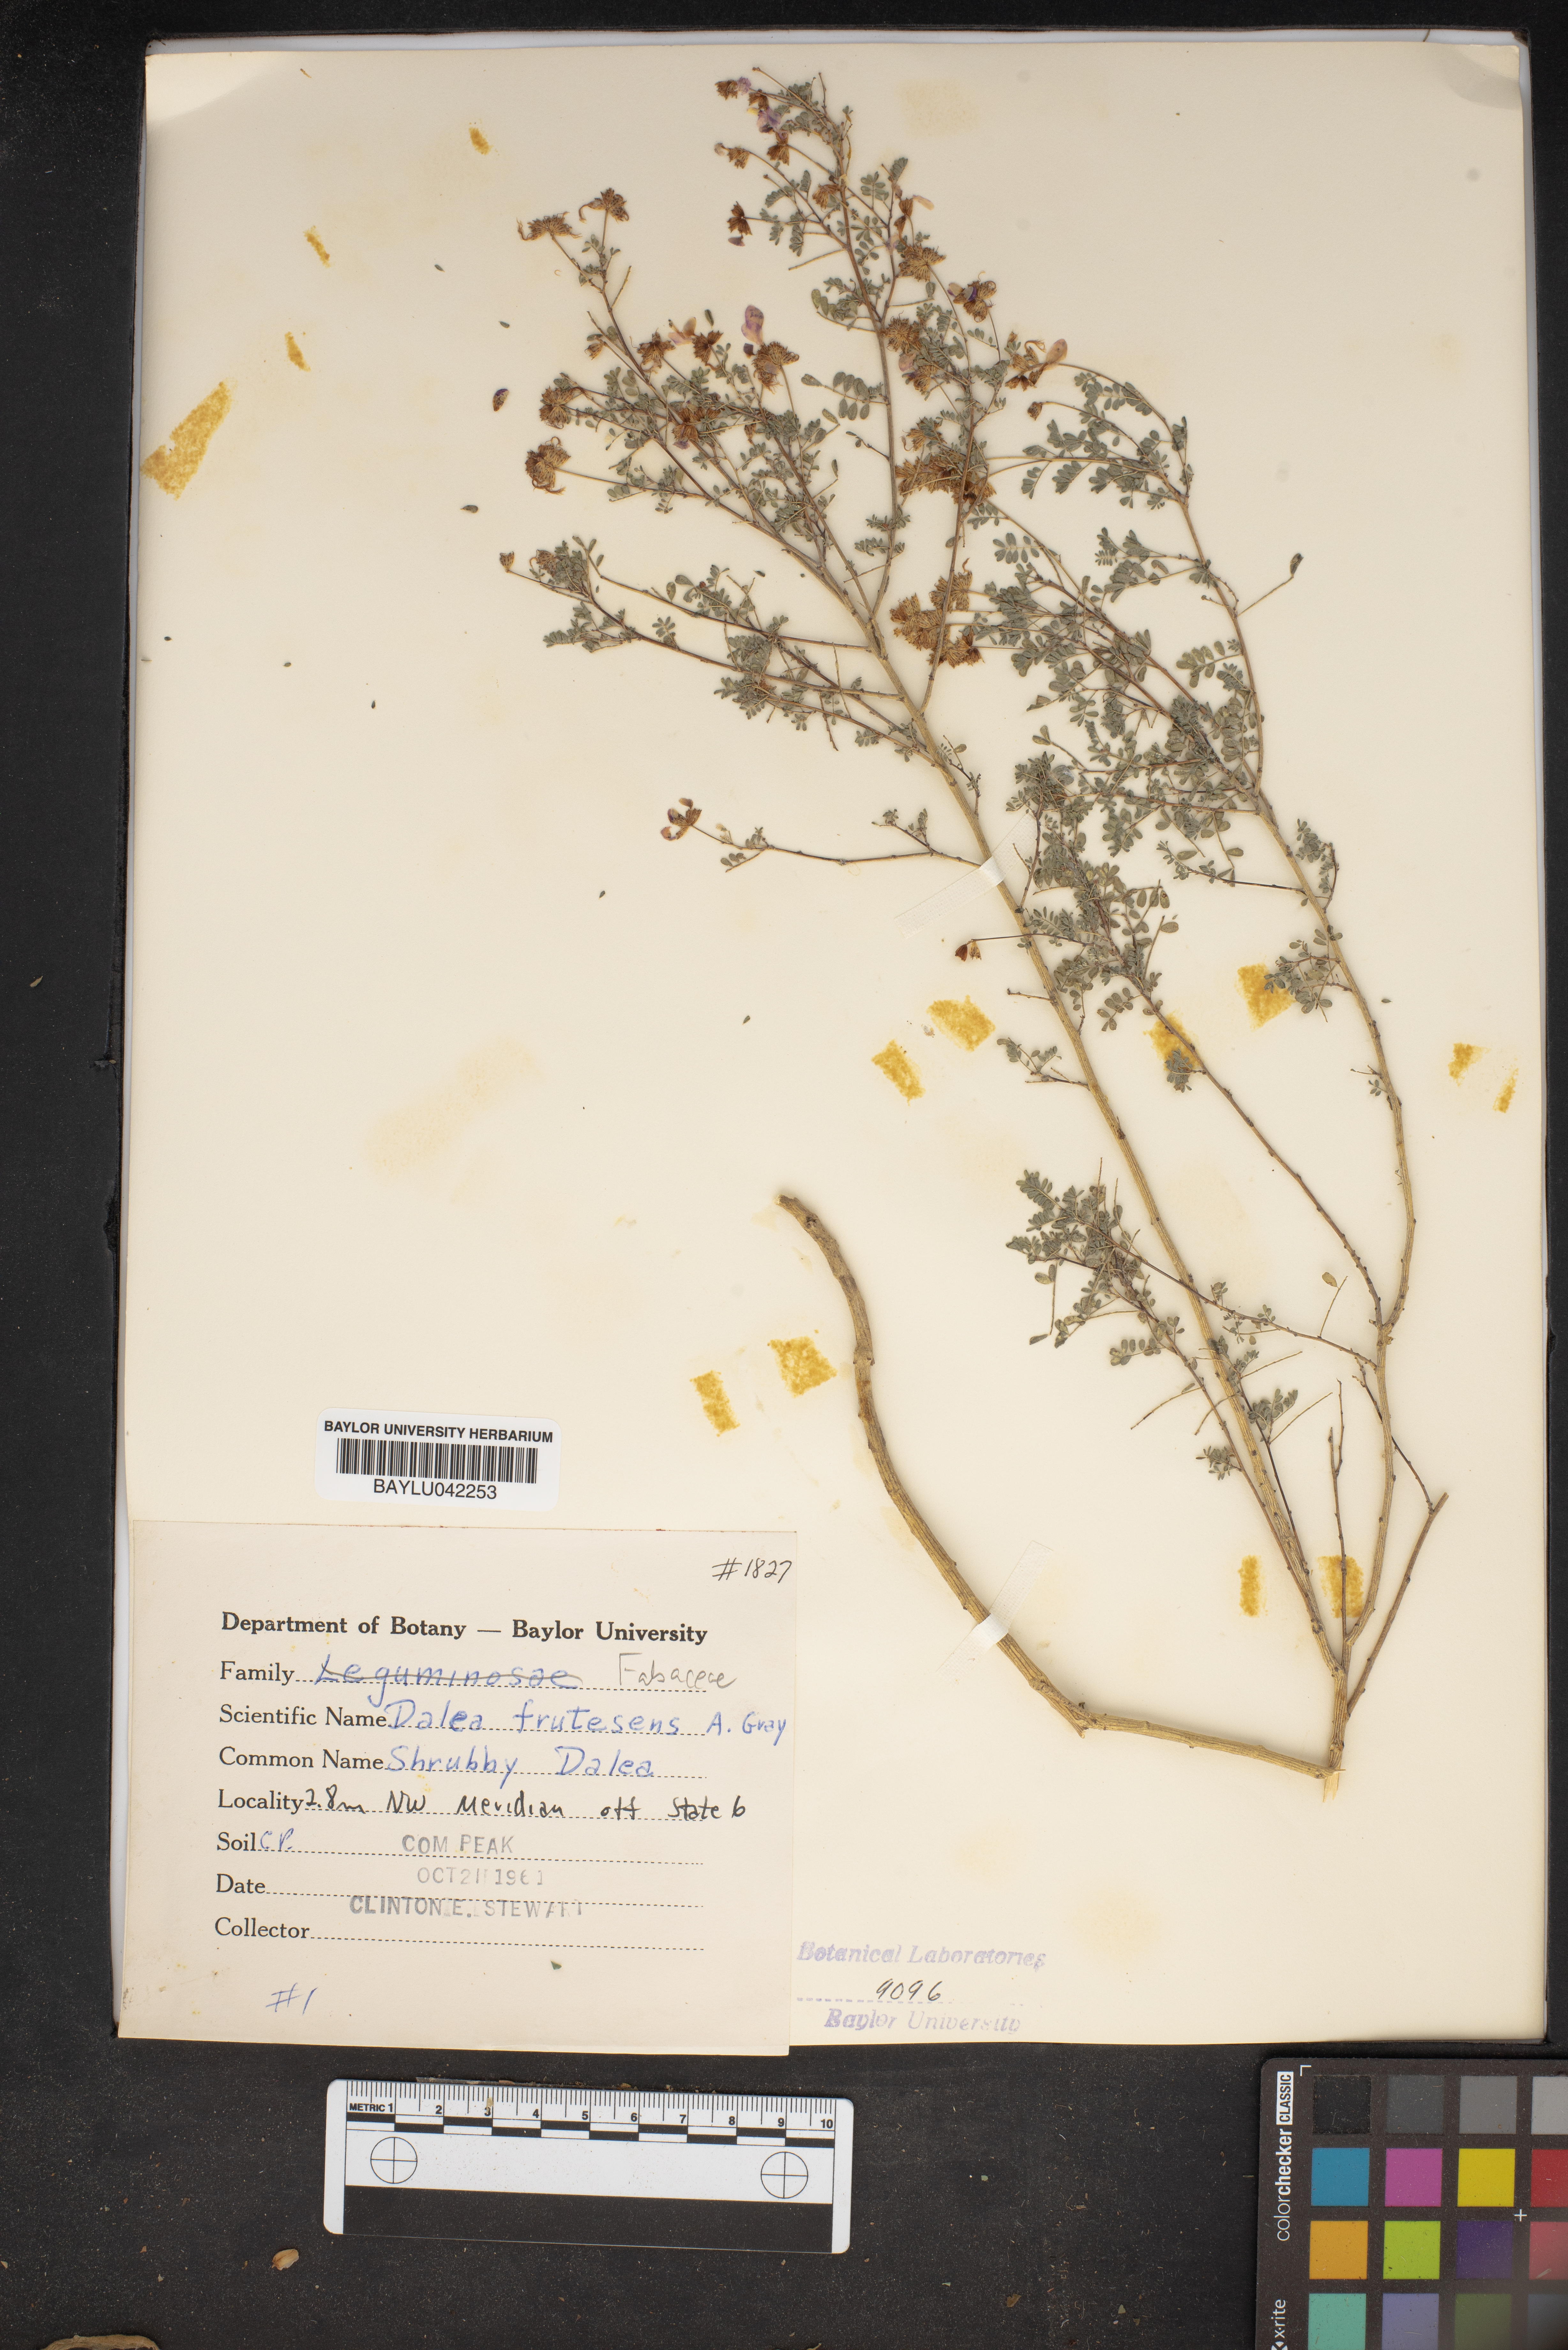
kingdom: Plantae
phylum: Tracheophyta
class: Magnoliopsida
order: Fabales
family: Fabaceae
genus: Dalea
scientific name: Dalea frutescens
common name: Black dalea
